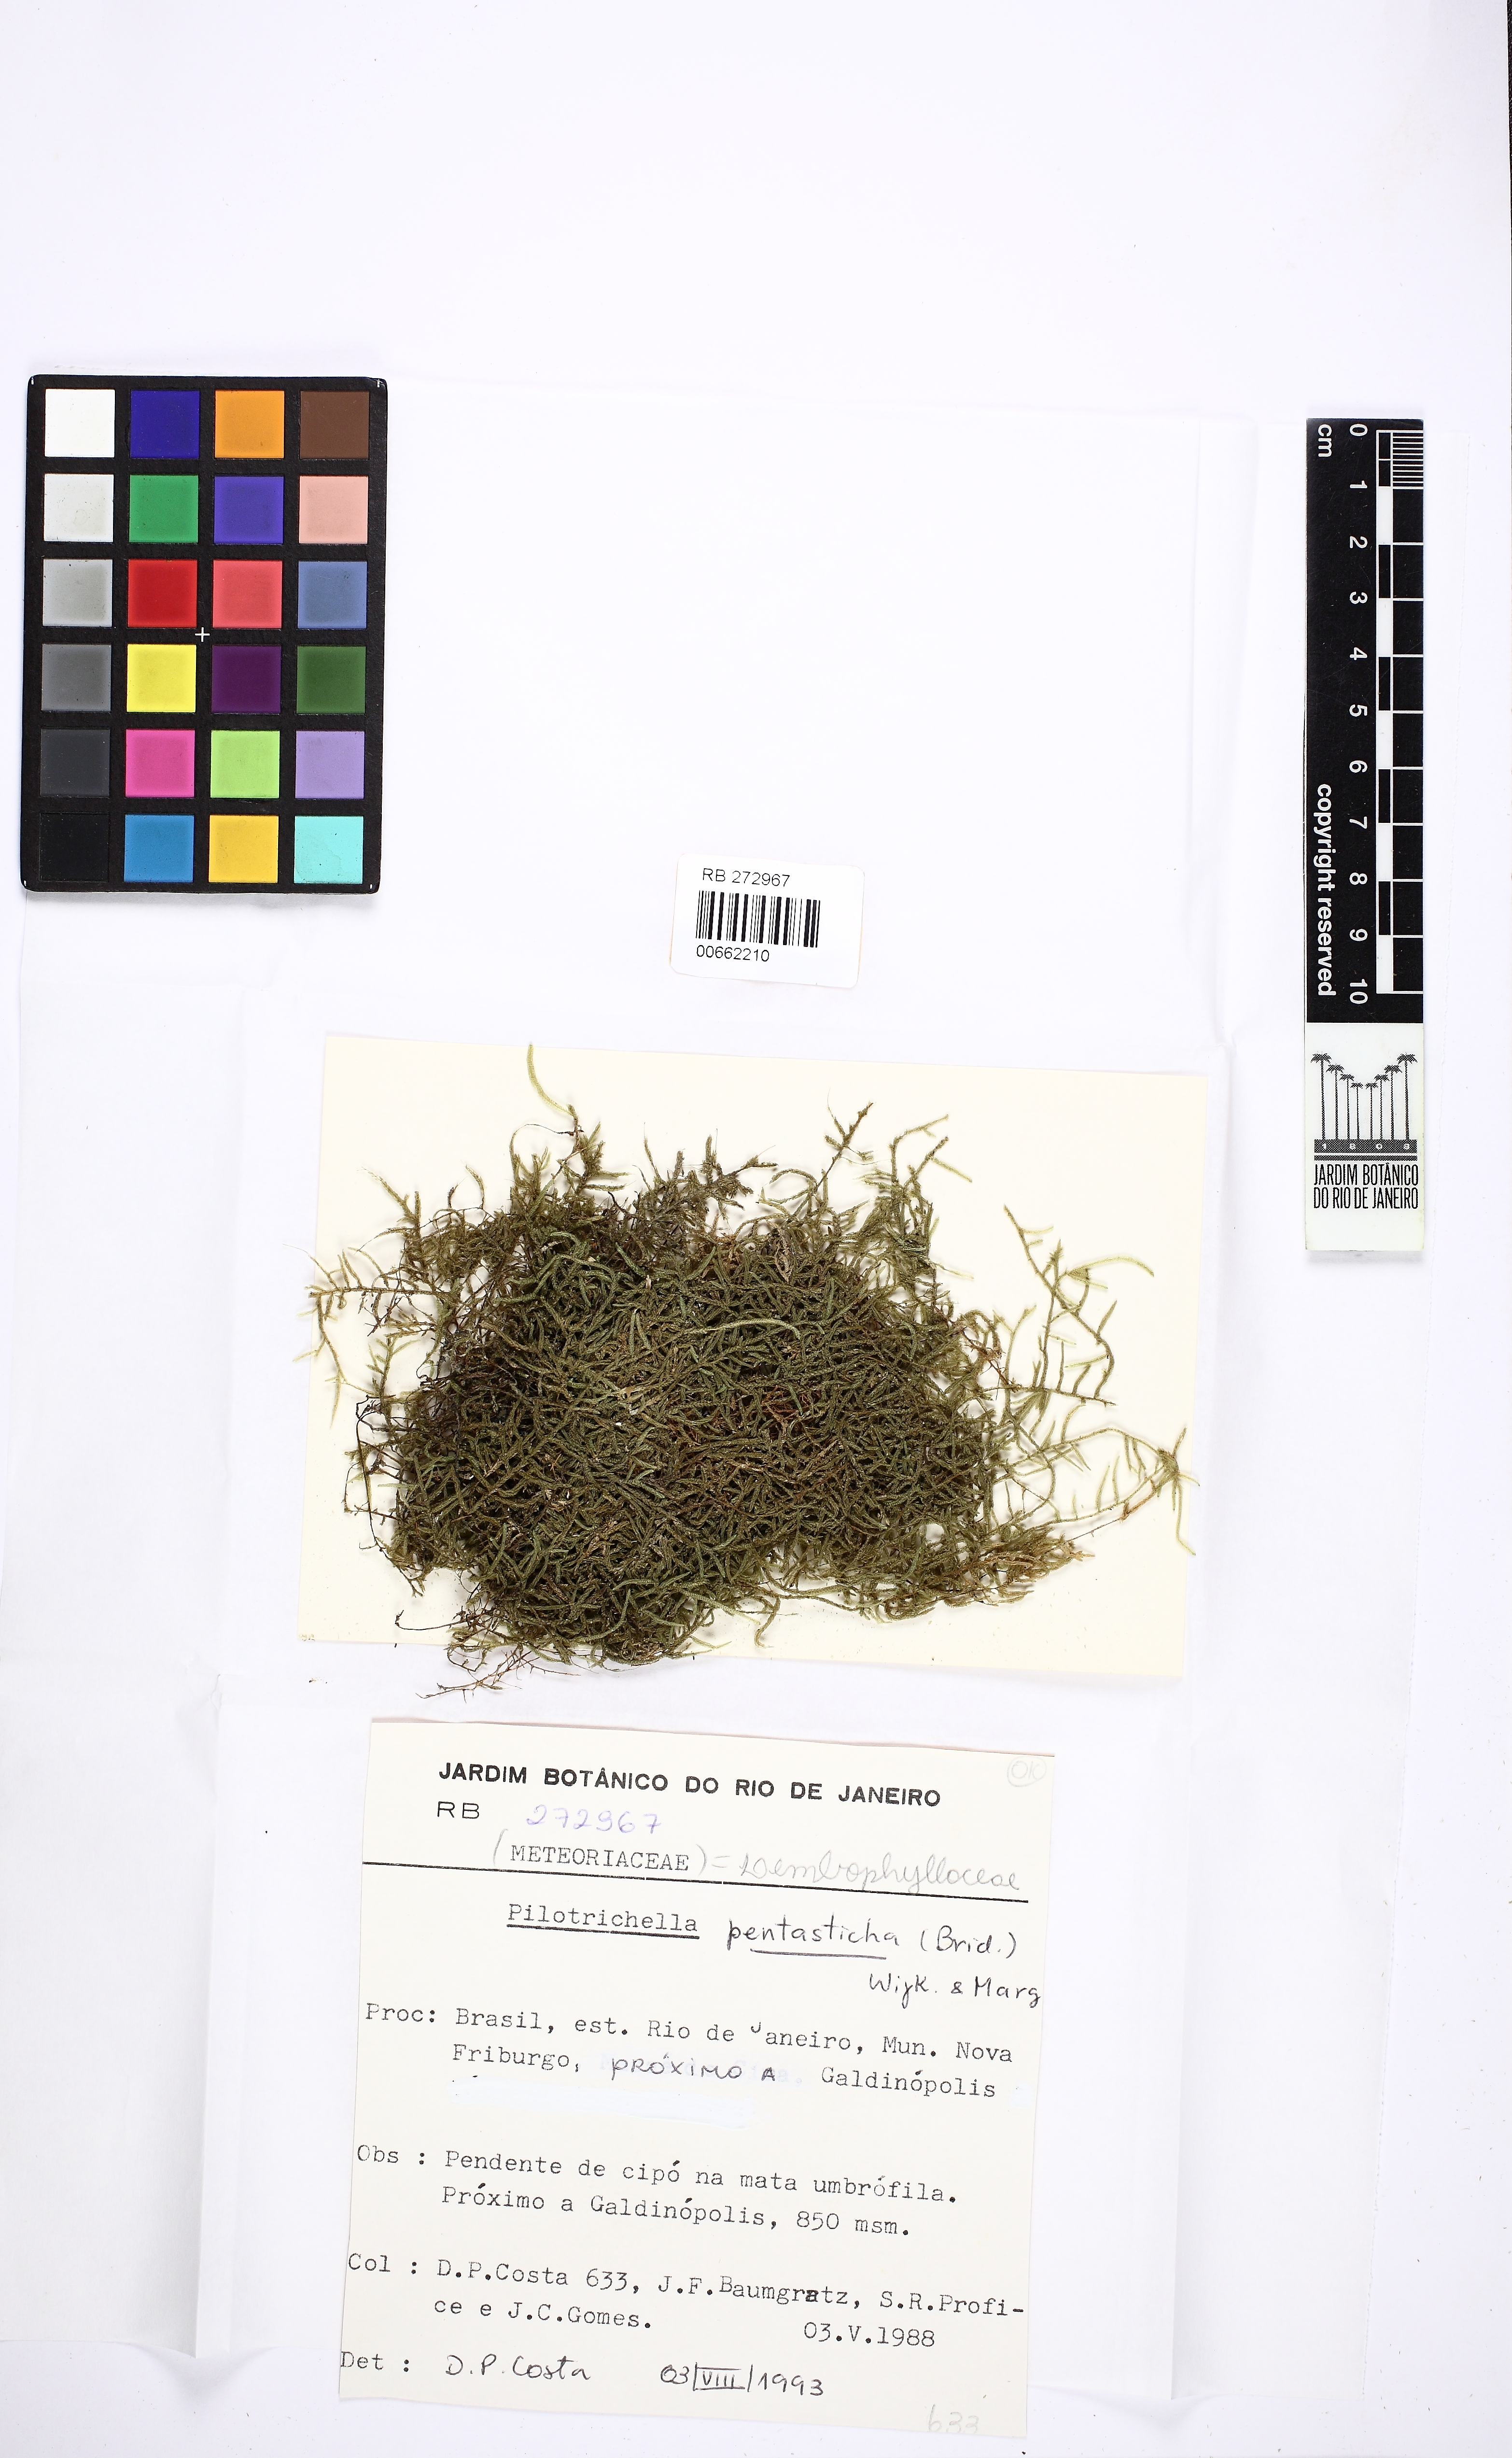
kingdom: Plantae
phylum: Bryophyta
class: Bryopsida
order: Hypnales
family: Pterobryaceae
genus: Orthostichidium
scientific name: Orthostichidium pentastichum
